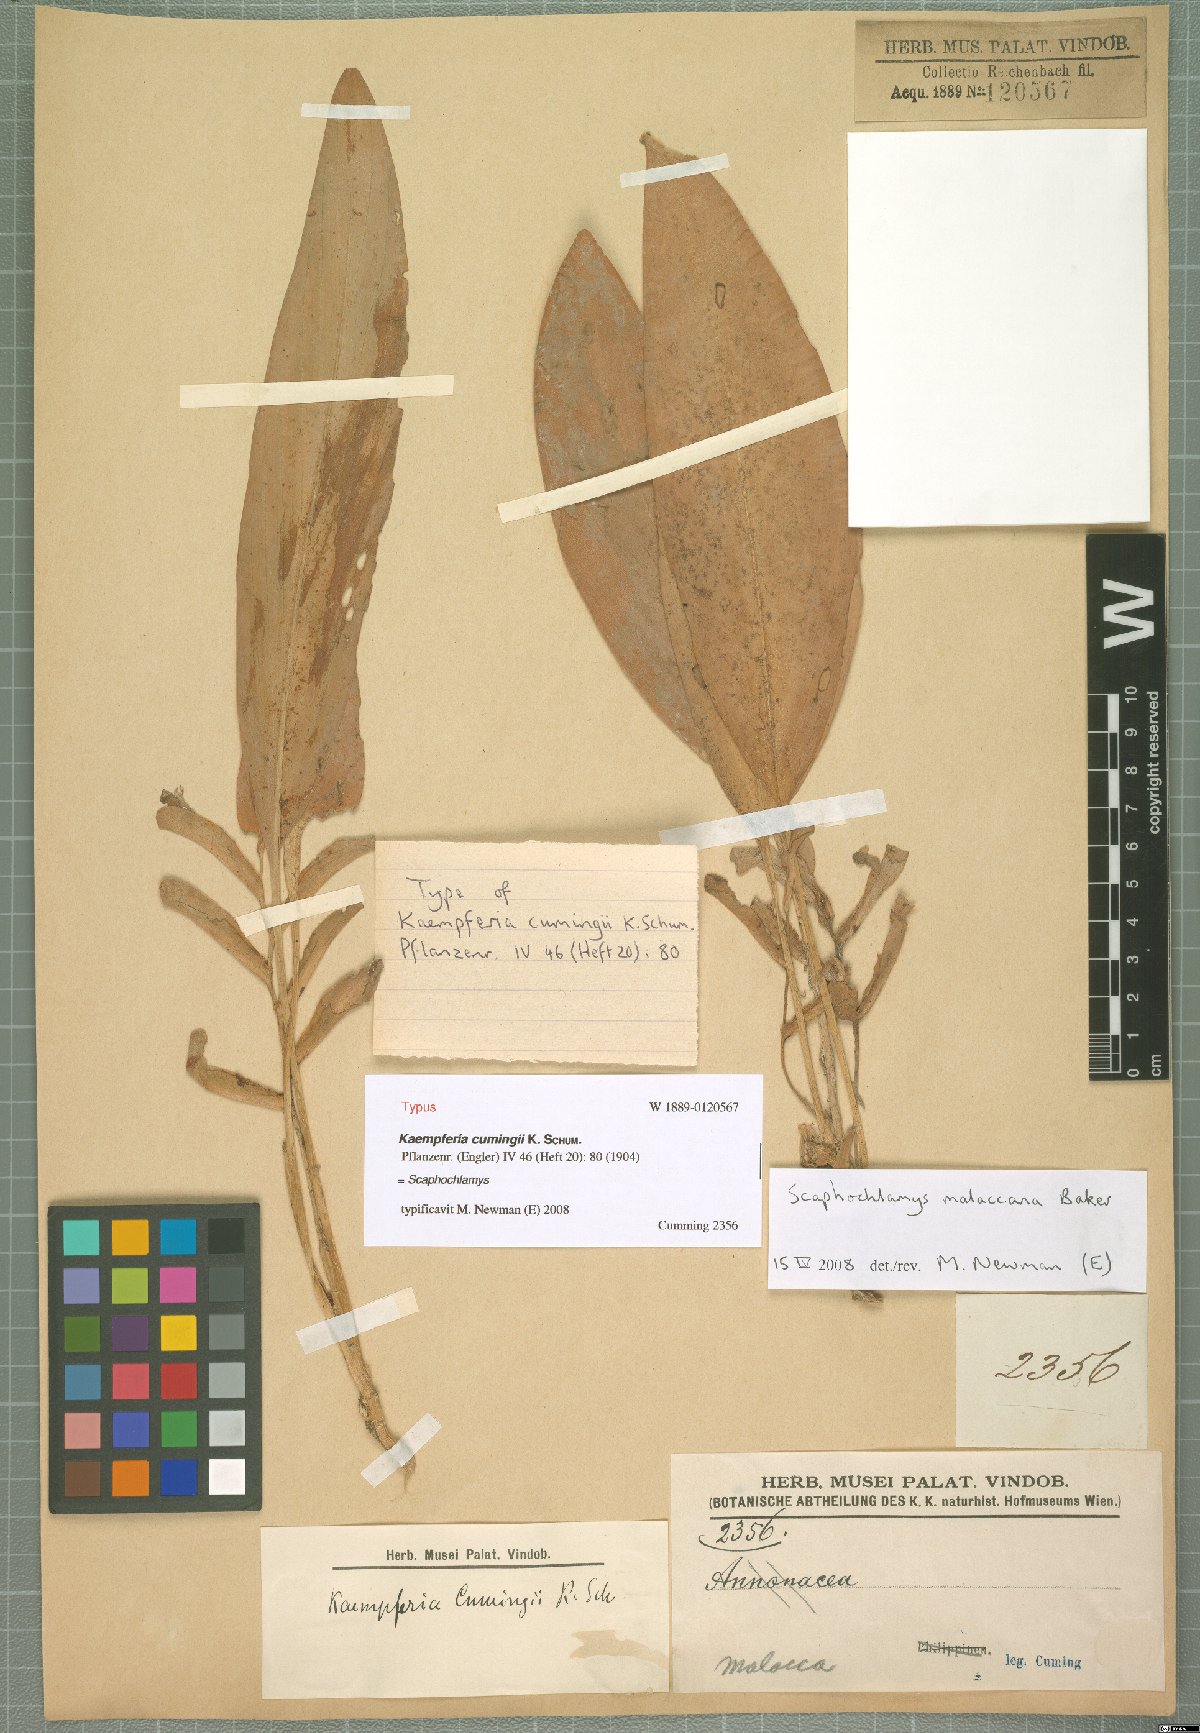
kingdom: Plantae
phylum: Tracheophyta
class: Liliopsida
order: Zingiberales
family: Zingiberaceae
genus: Scaphochlamys
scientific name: Scaphochlamys malaccana
